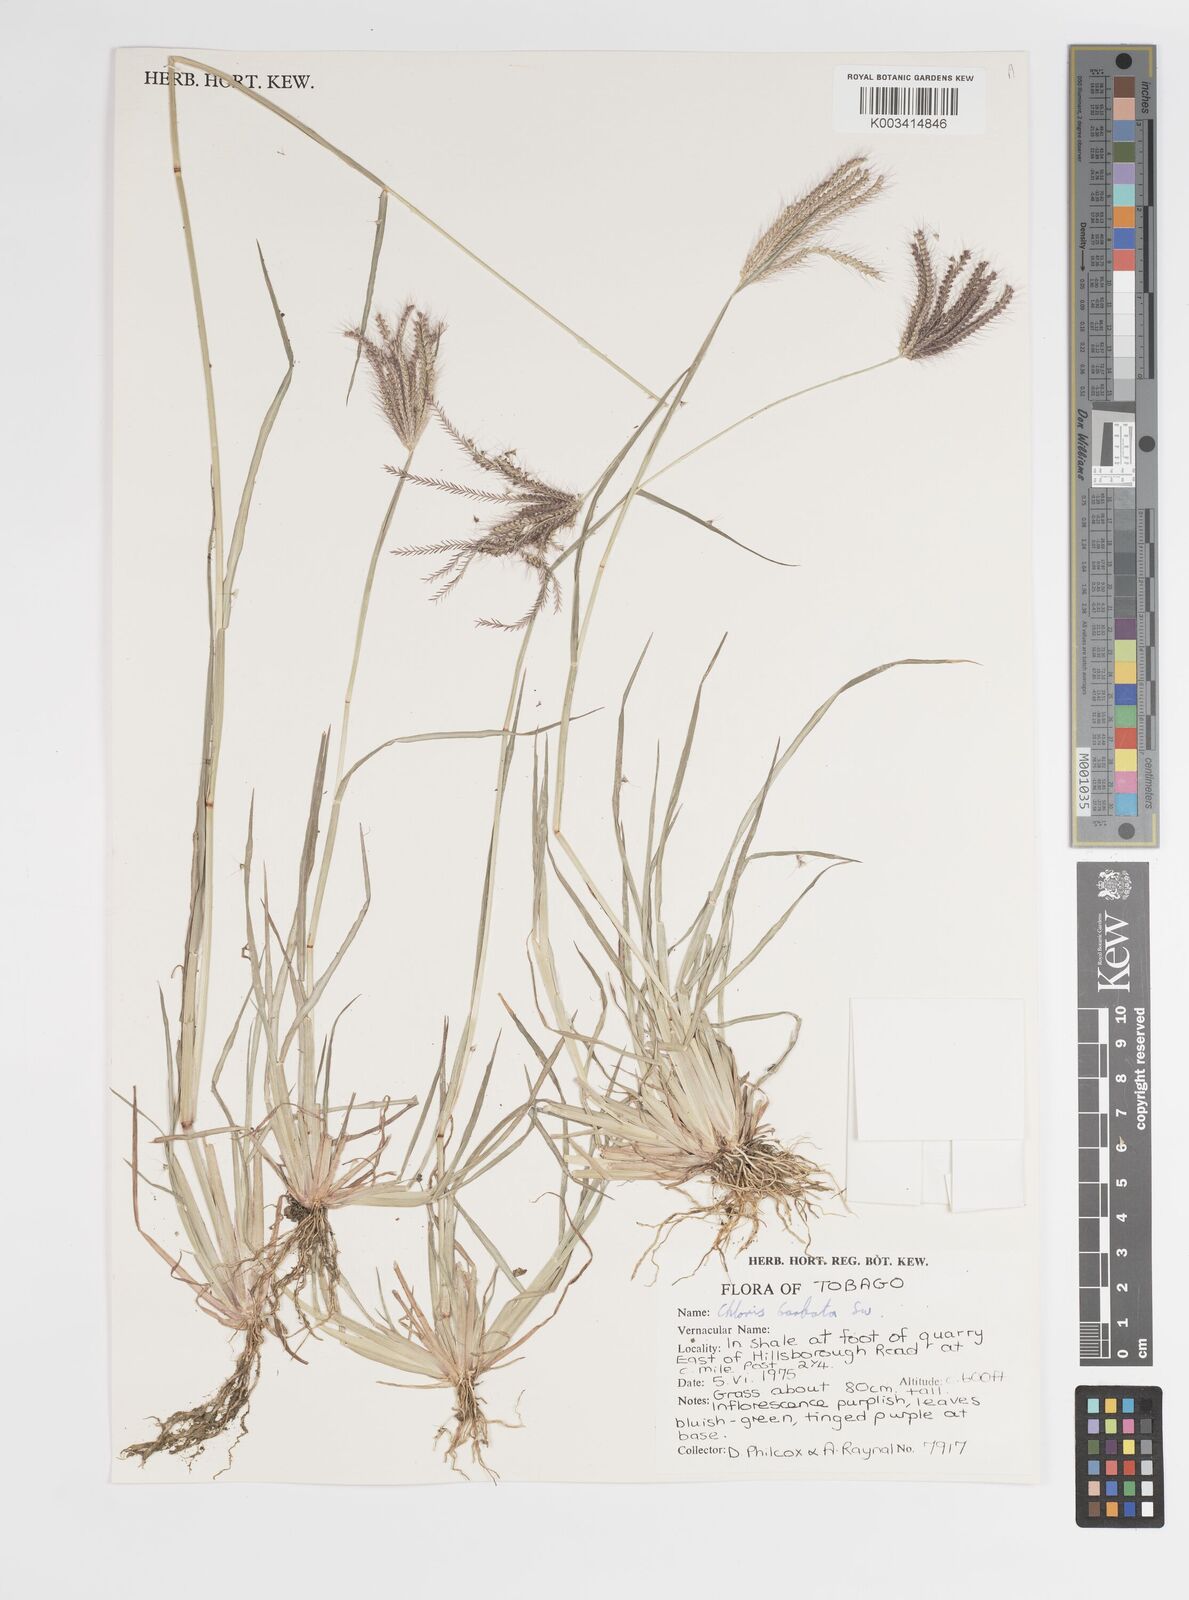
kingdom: Plantae
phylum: Tracheophyta
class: Liliopsida
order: Poales
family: Poaceae
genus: Chloris
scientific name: Chloris barbata
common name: Swollen fingergrass
